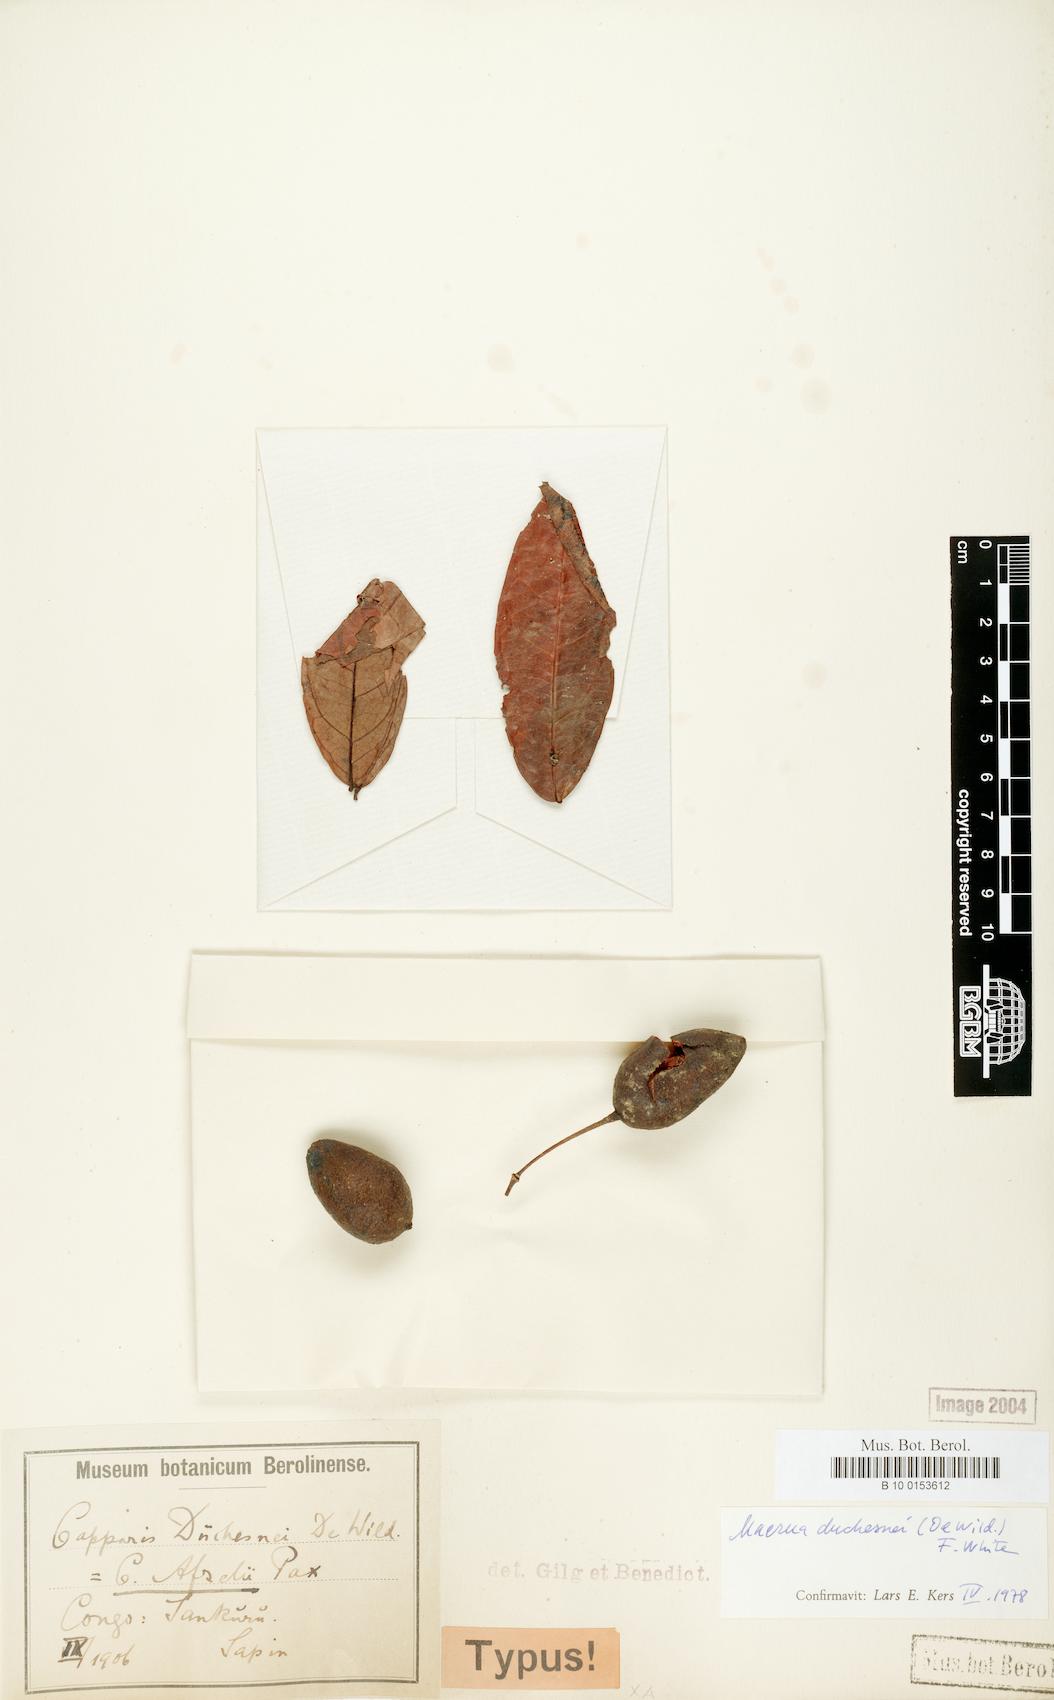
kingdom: Plantae
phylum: Tracheophyta
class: Magnoliopsida
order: Brassicales
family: Capparaceae
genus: Maerua
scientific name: Maerua duchesnei
